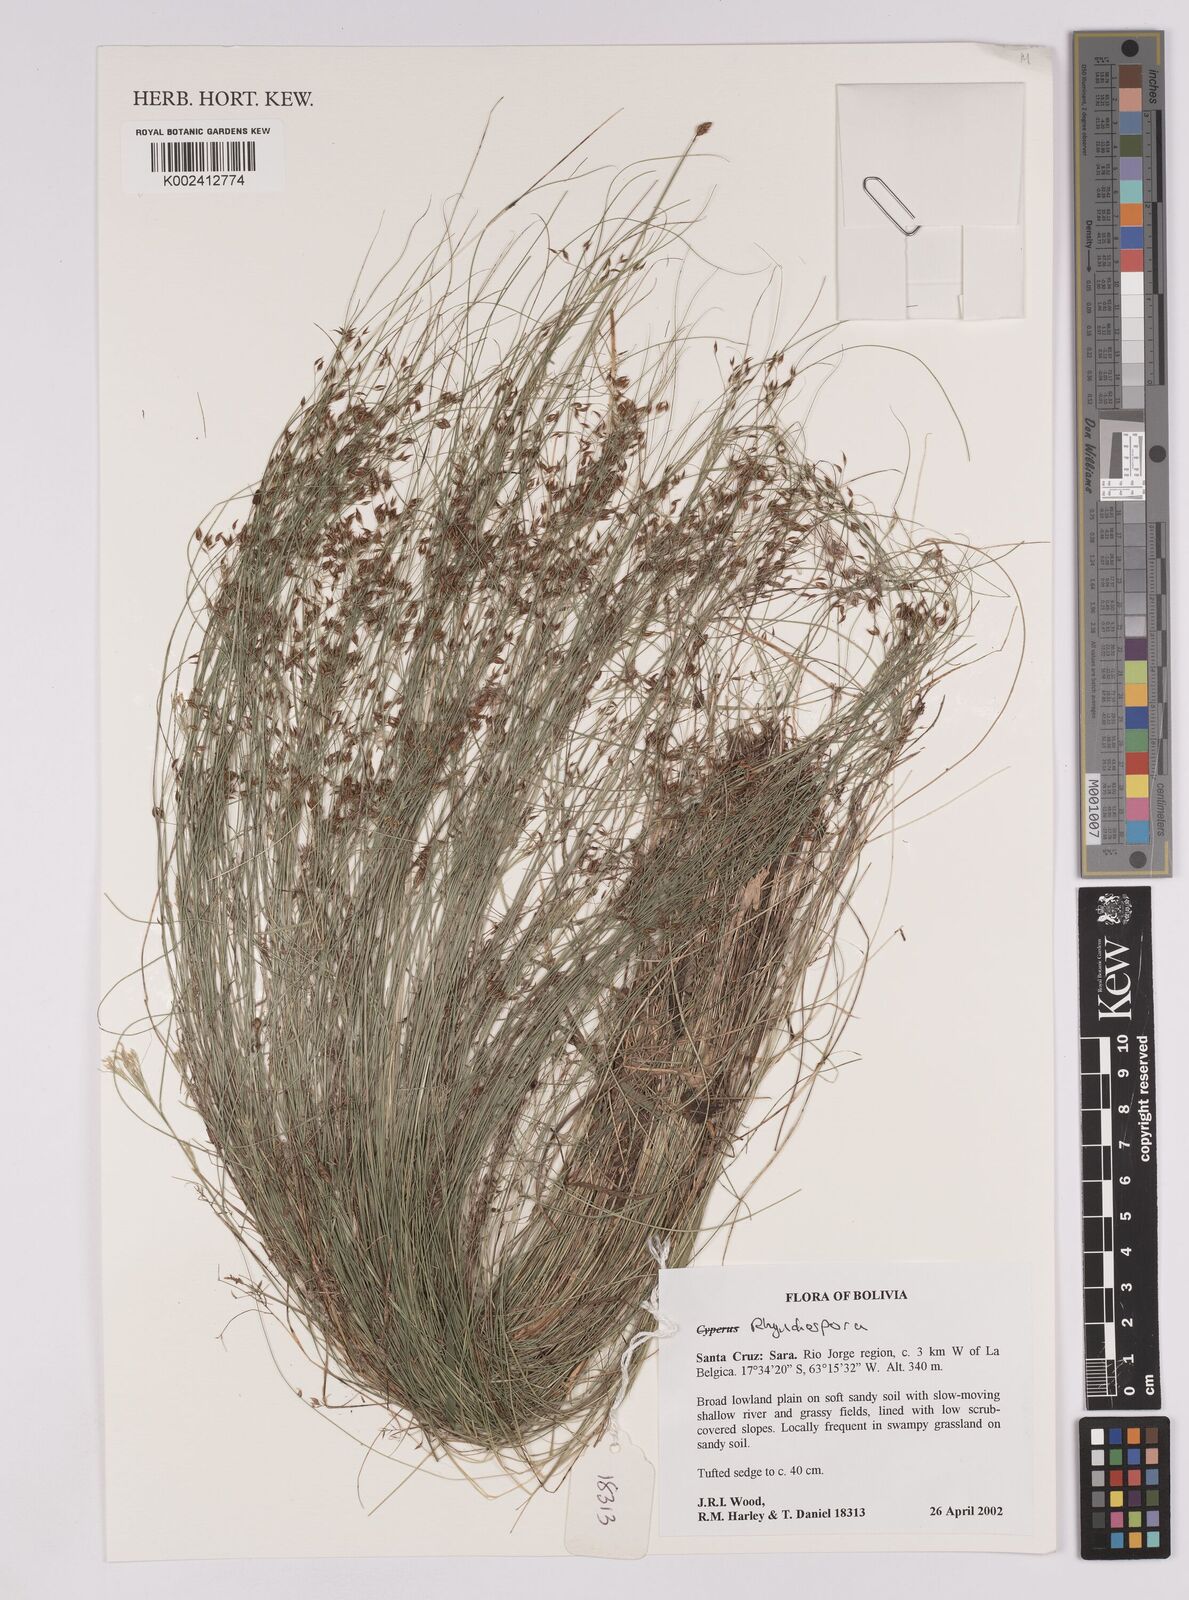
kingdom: Plantae
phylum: Tracheophyta
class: Liliopsida
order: Poales
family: Cyperaceae
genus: Rhynchospora
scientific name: Rhynchospora
